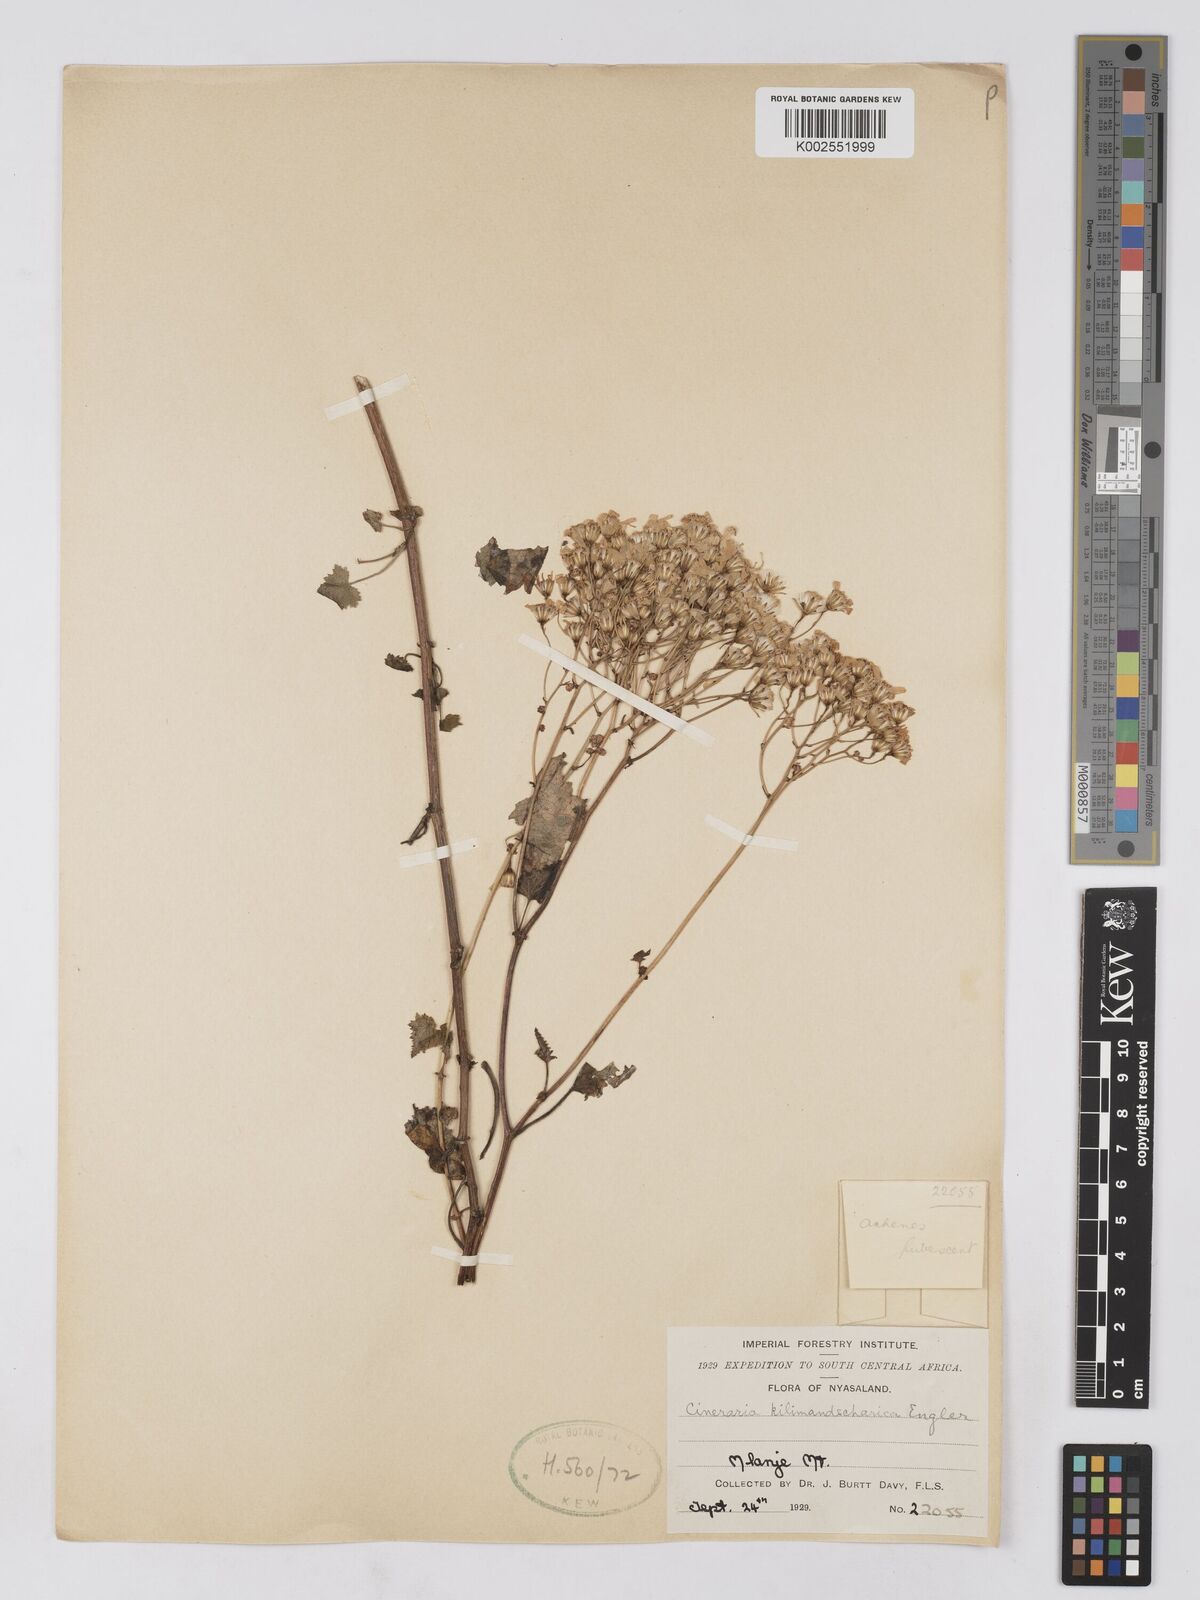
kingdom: Plantae
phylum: Tracheophyta
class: Magnoliopsida
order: Asterales
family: Asteraceae
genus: Cineraria
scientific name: Cineraria deltoidea
